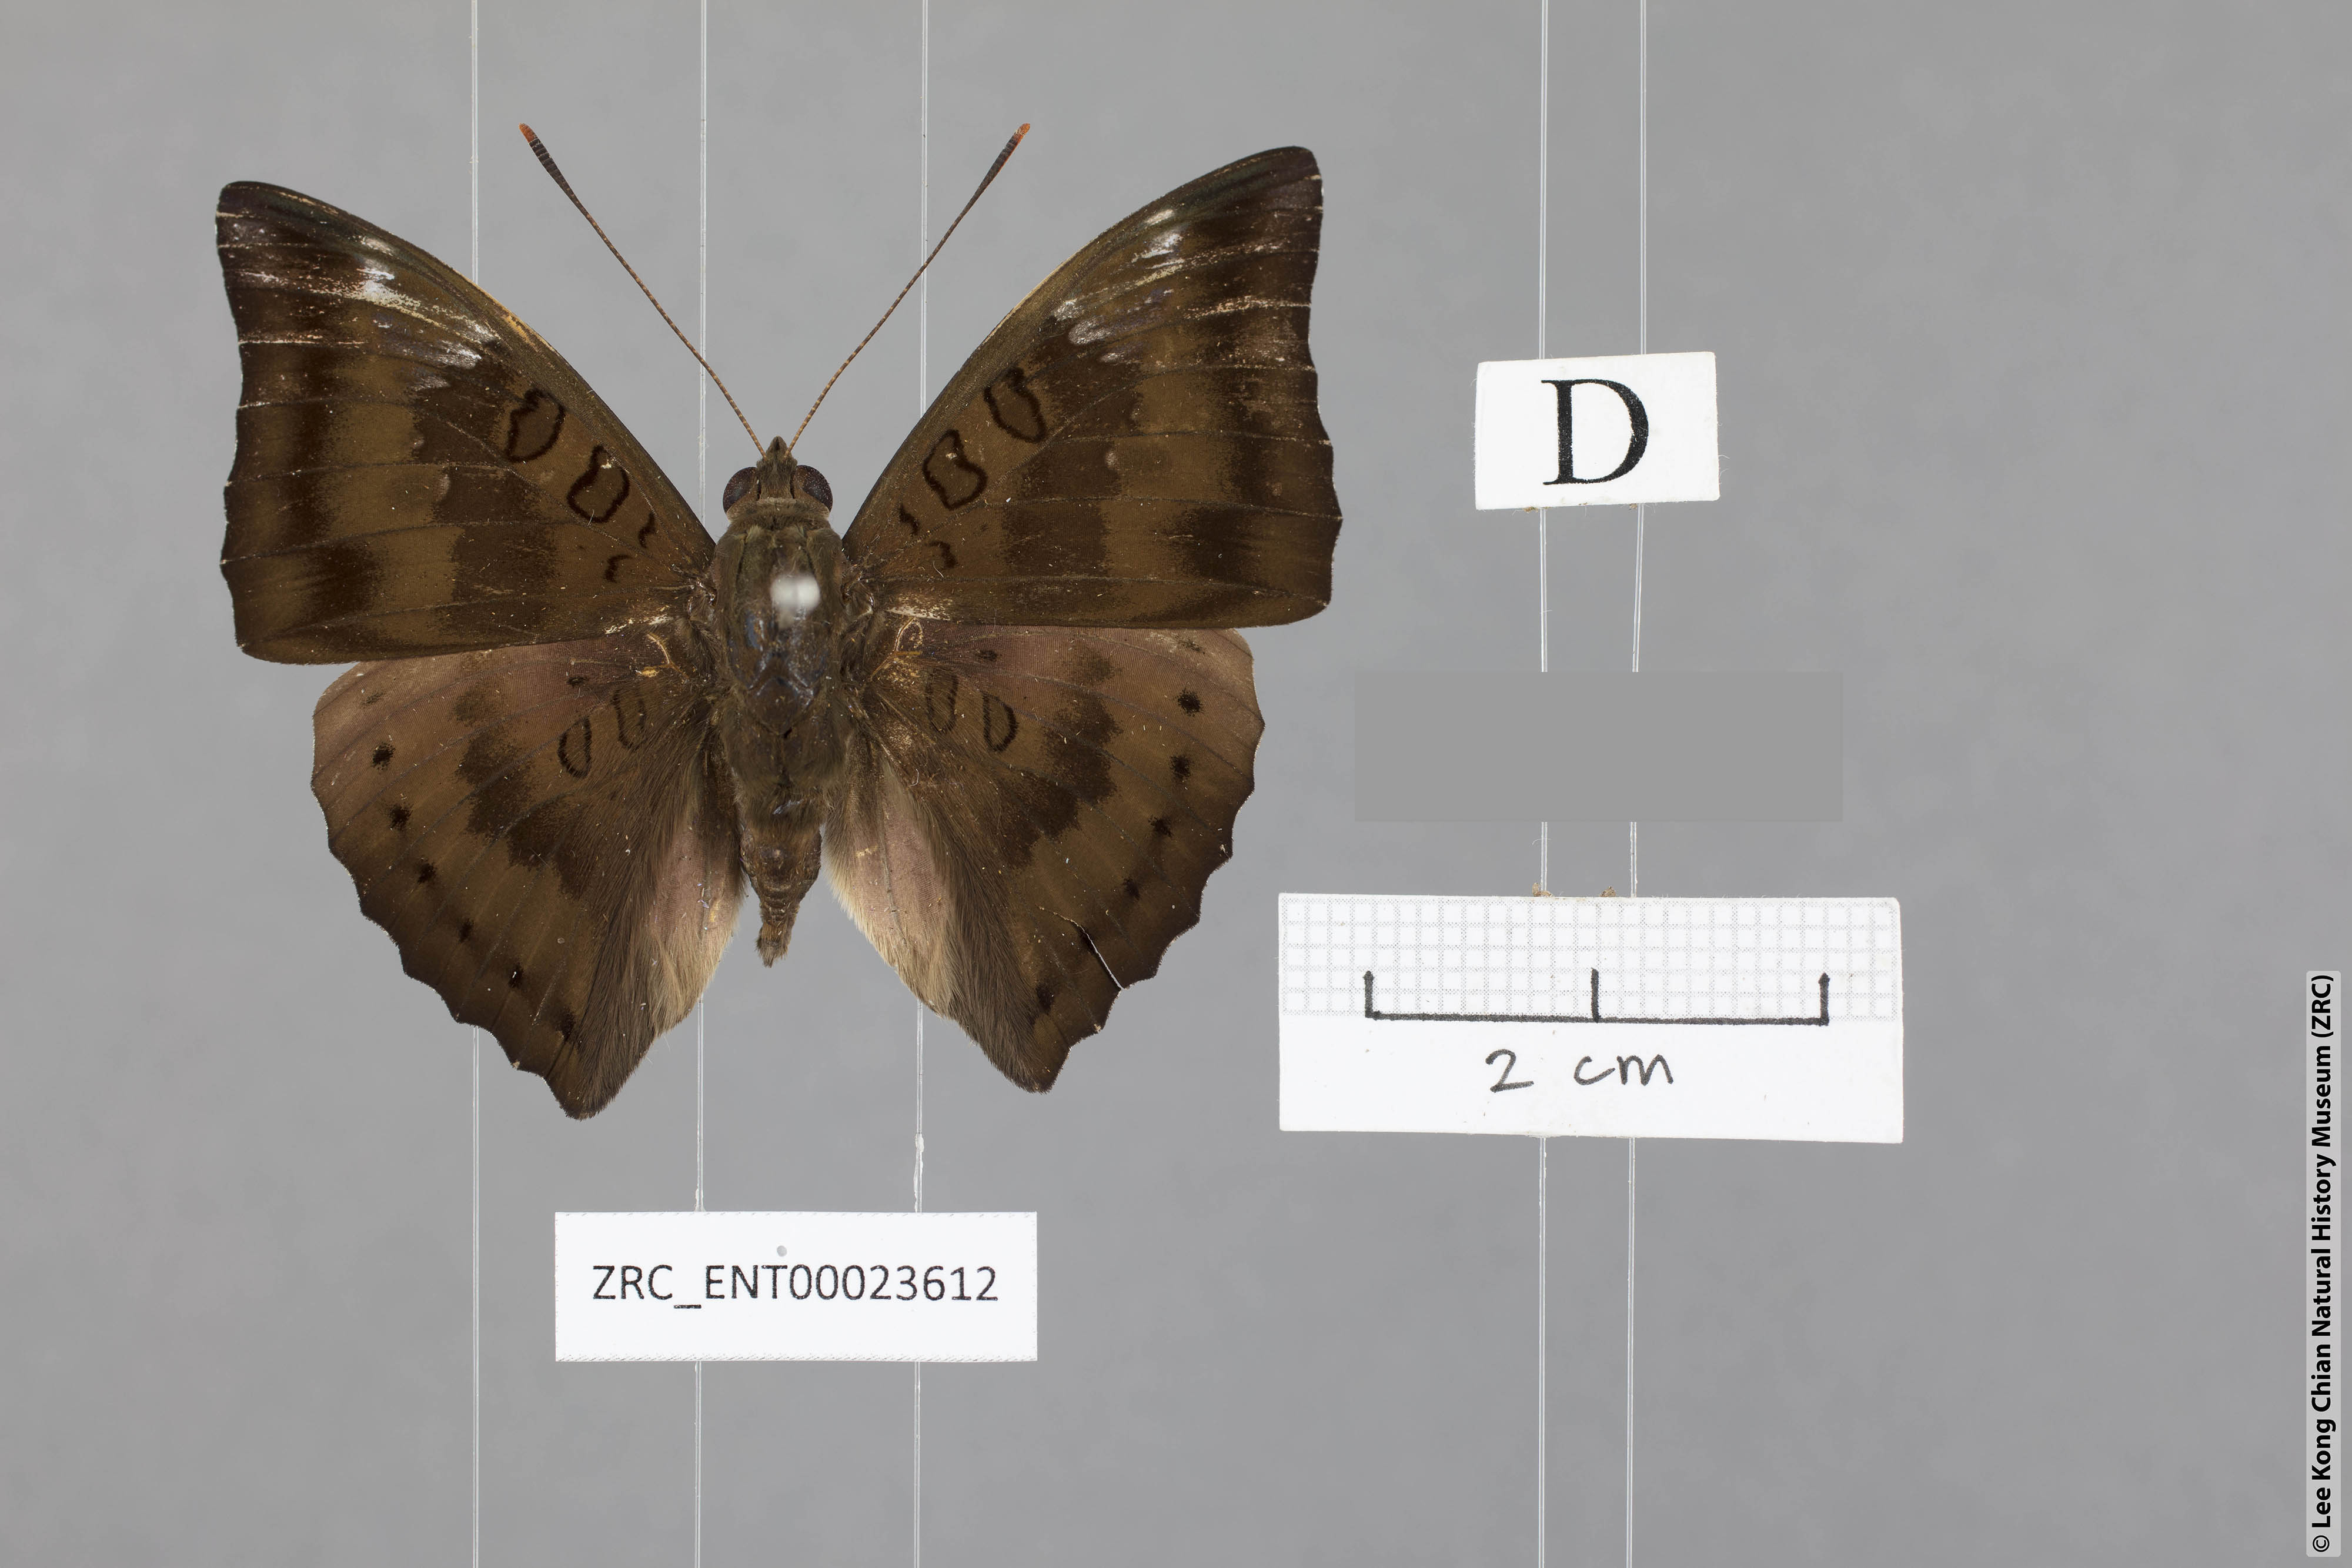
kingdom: Animalia
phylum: Arthropoda
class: Insecta
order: Lepidoptera
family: Nymphalidae
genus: Euthalia
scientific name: Euthalia alpheda
